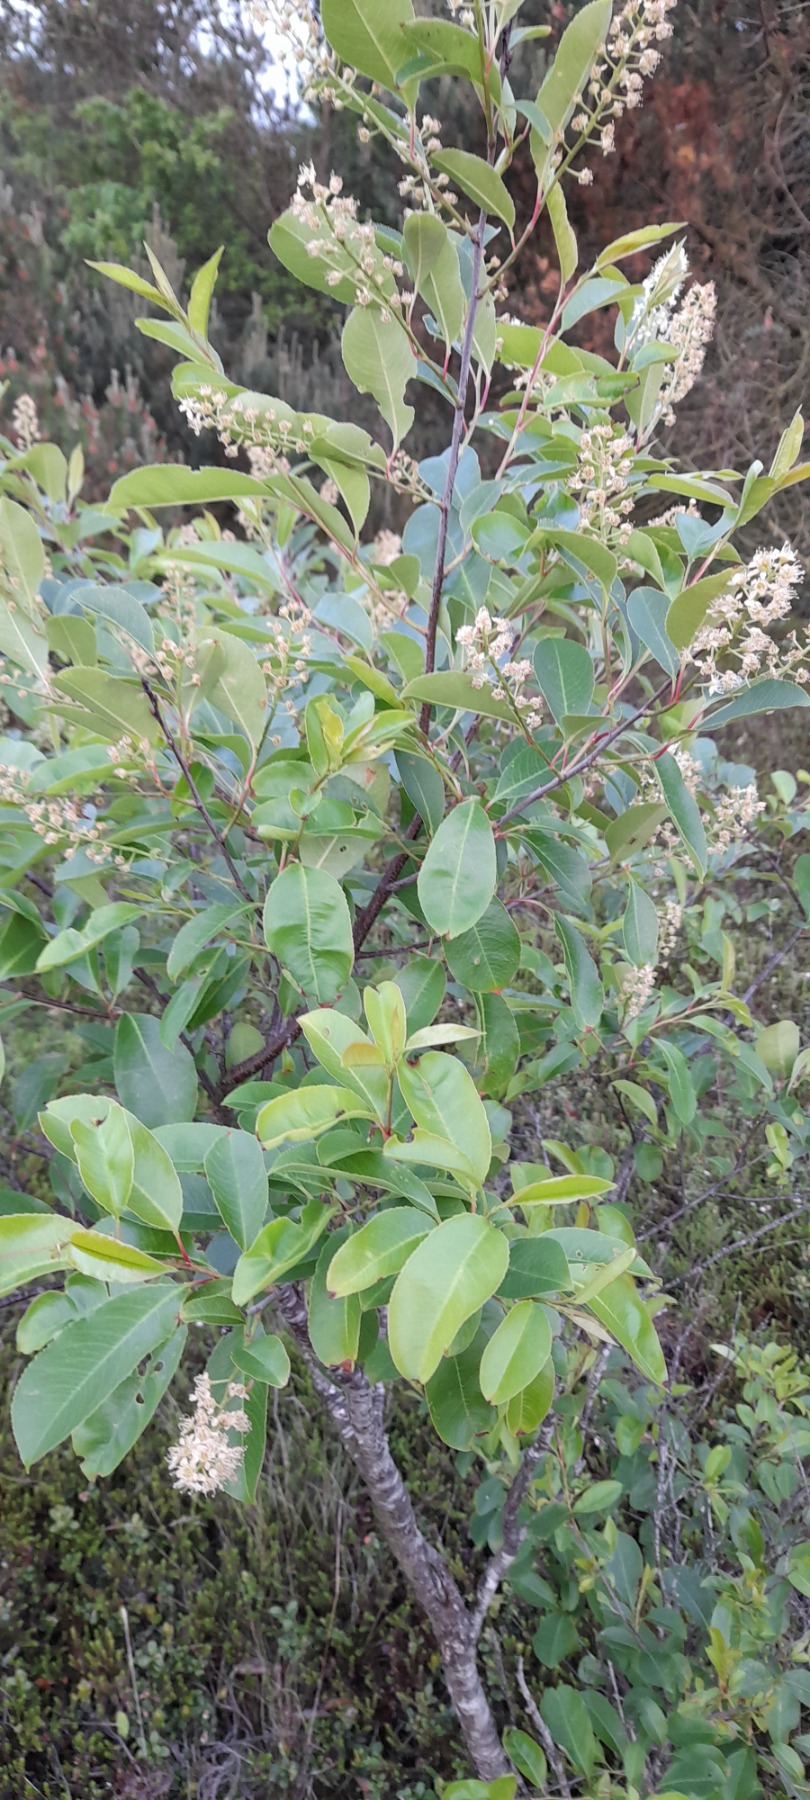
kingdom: Plantae
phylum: Tracheophyta
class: Magnoliopsida
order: Rosales
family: Rosaceae
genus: Prunus
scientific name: Prunus serotina
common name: Glansbladet hæg
